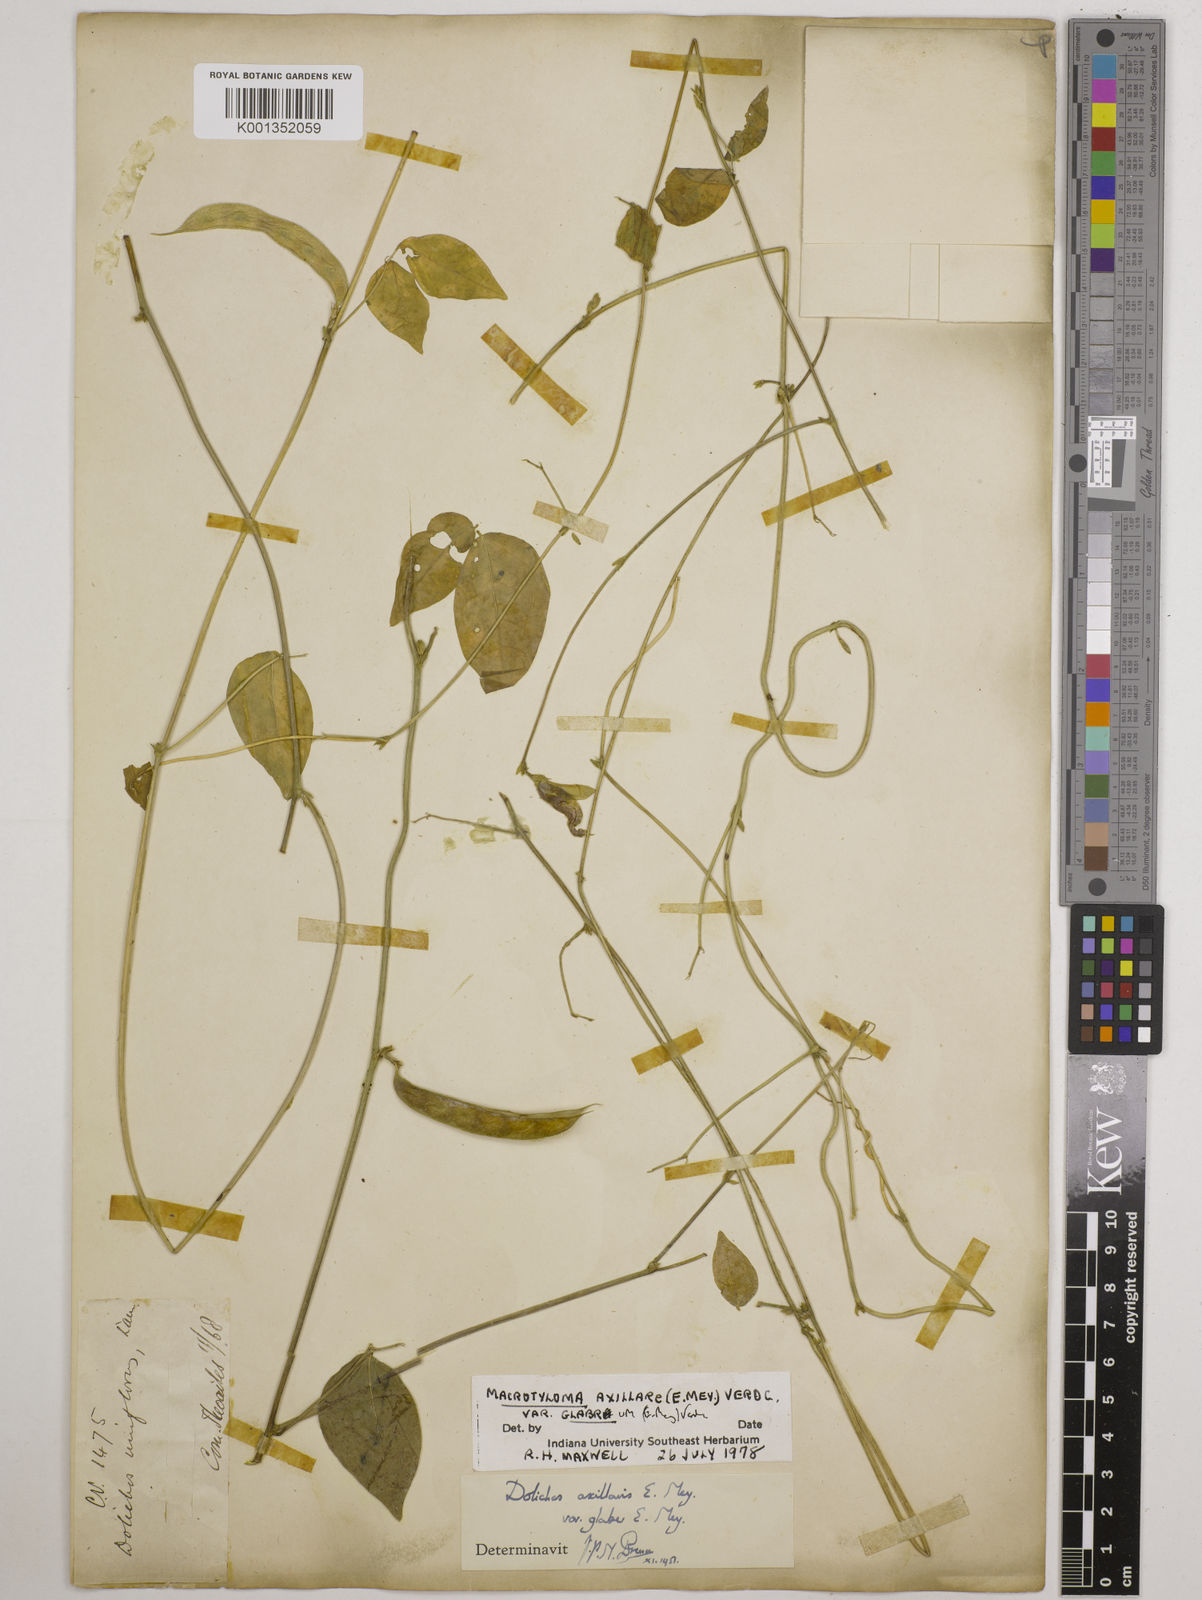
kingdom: Plantae
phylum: Tracheophyta
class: Magnoliopsida
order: Fabales
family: Fabaceae
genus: Macrotyloma
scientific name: Macrotyloma
